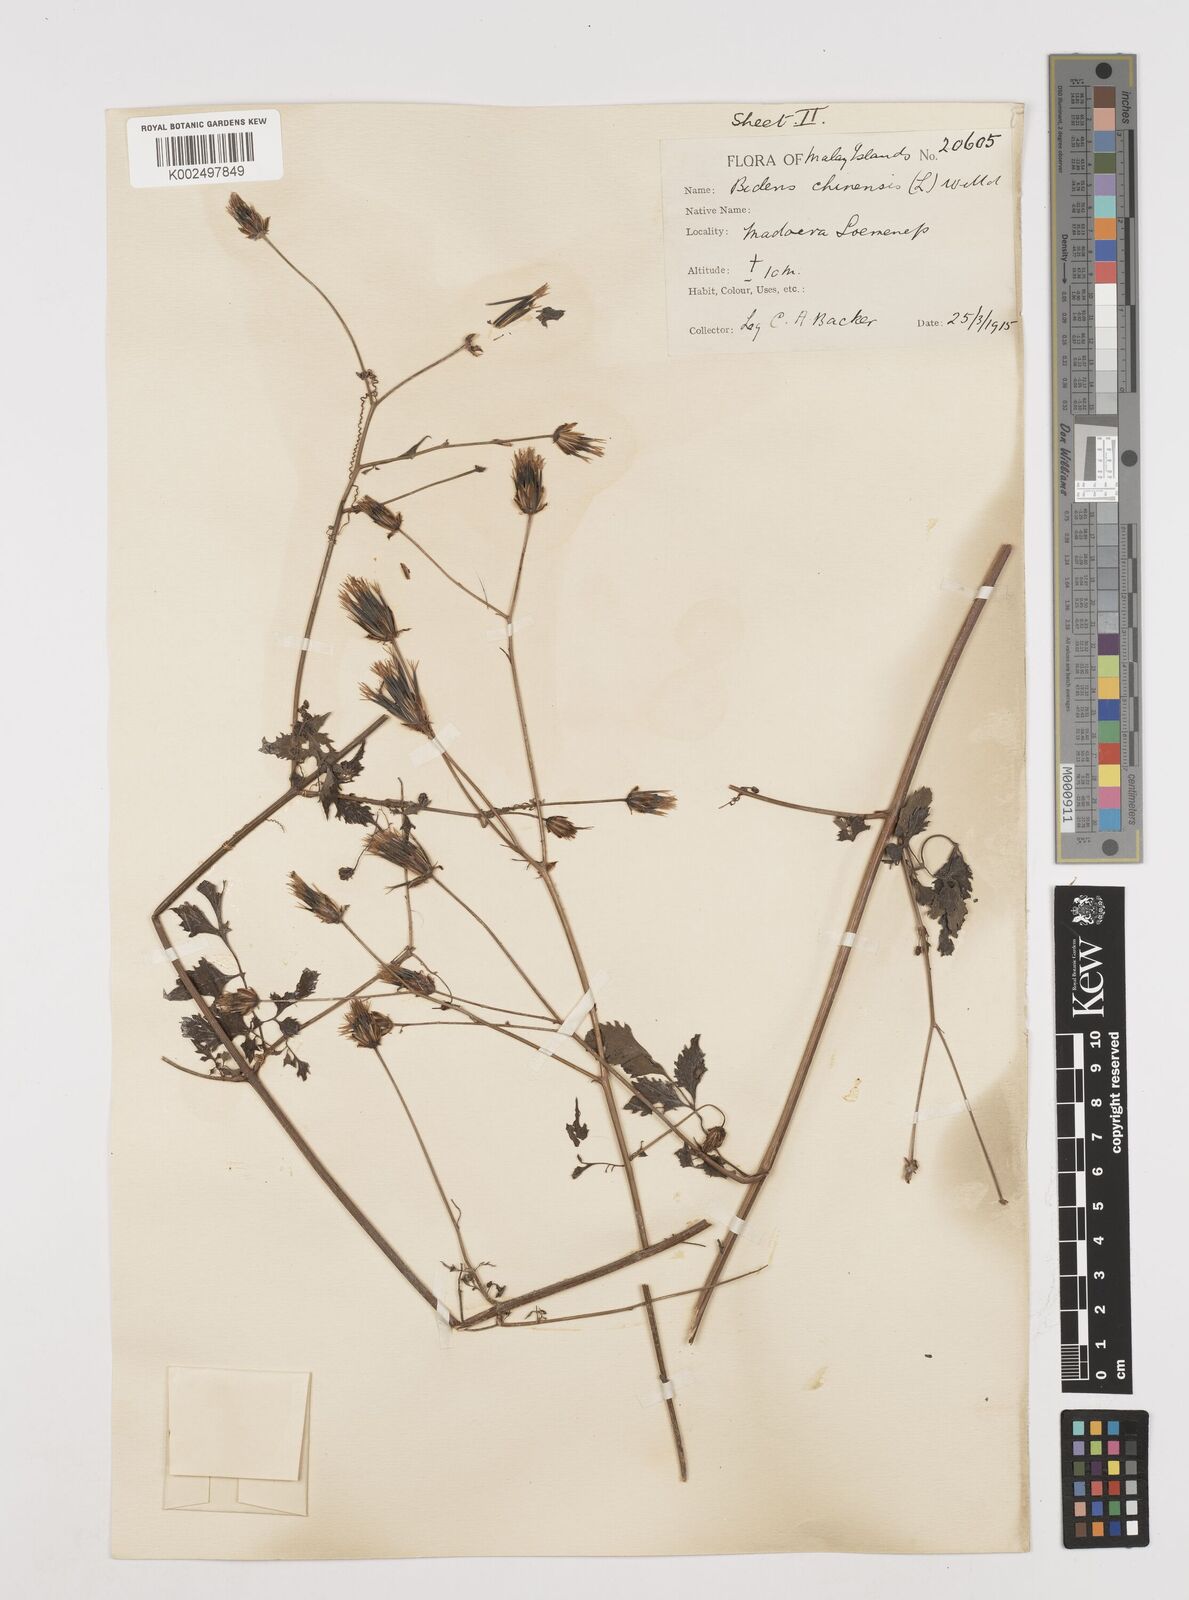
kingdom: Plantae
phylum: Tracheophyta
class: Magnoliopsida
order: Asterales
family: Asteraceae
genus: Bidens
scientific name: Bidens biternata
